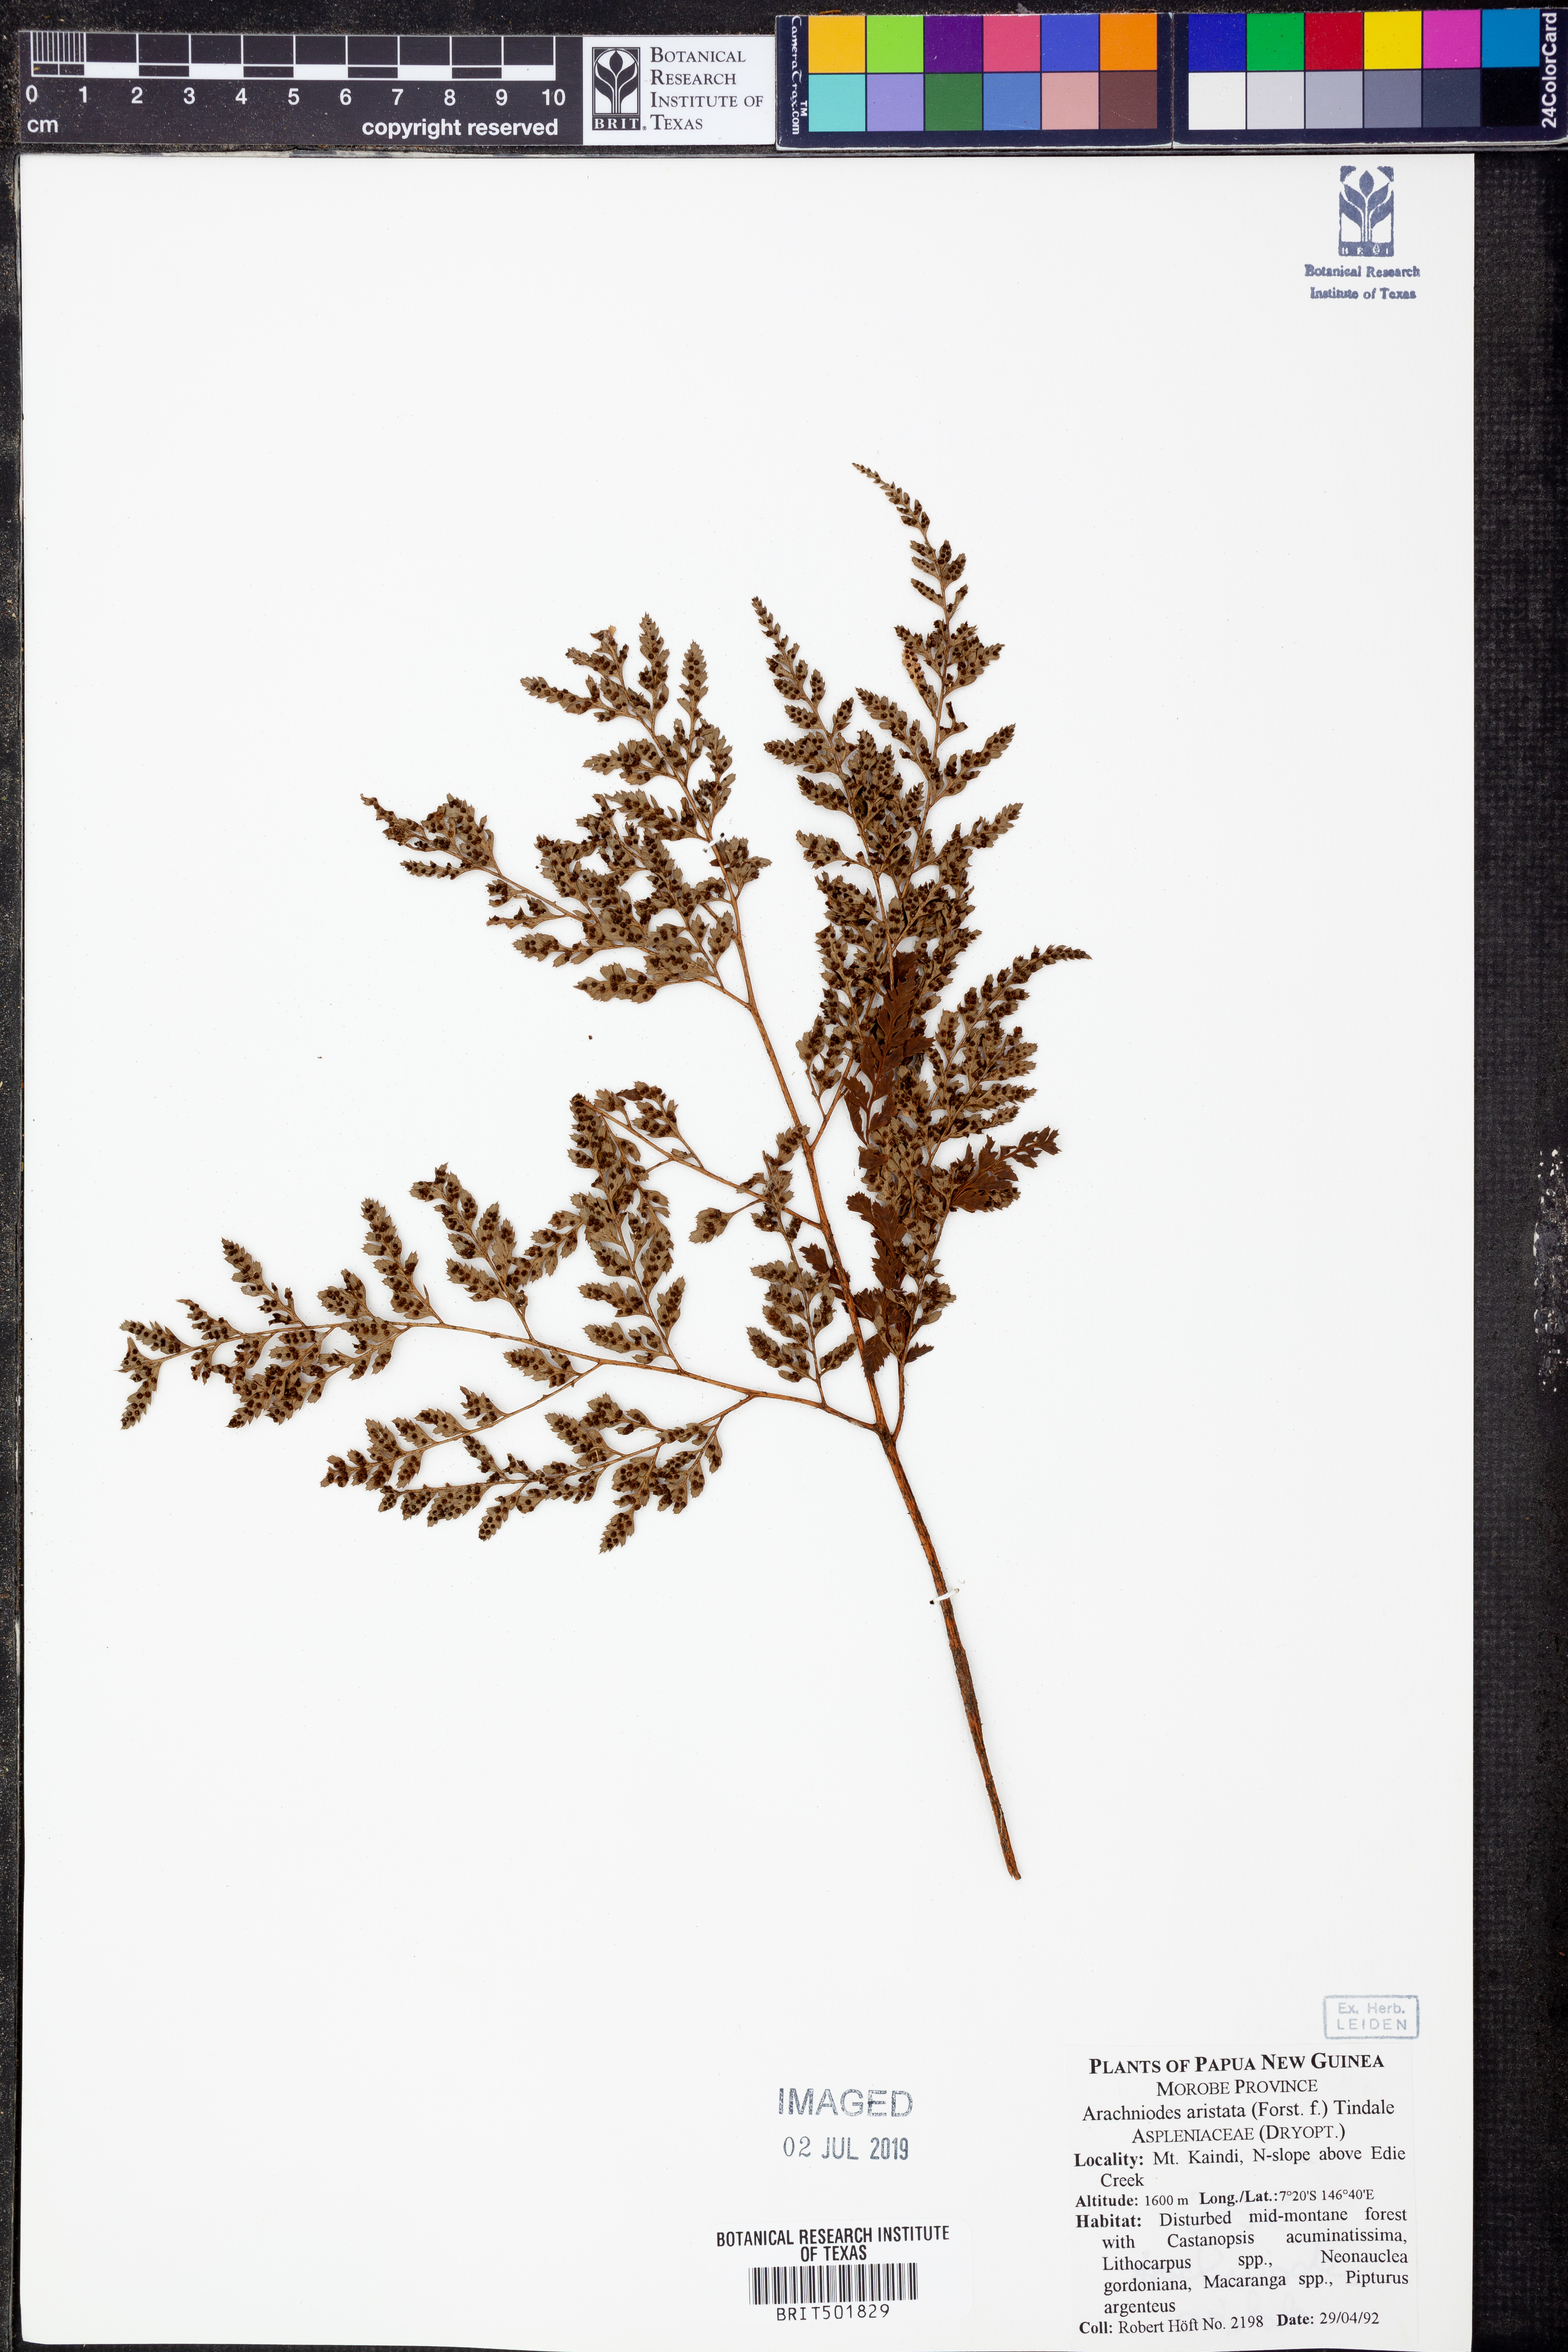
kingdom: Plantae
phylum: Tracheophyta
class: Polypodiopsida
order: Polypodiales
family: Dryopteridaceae
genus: Arachniodes
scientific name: Arachniodes aristata
